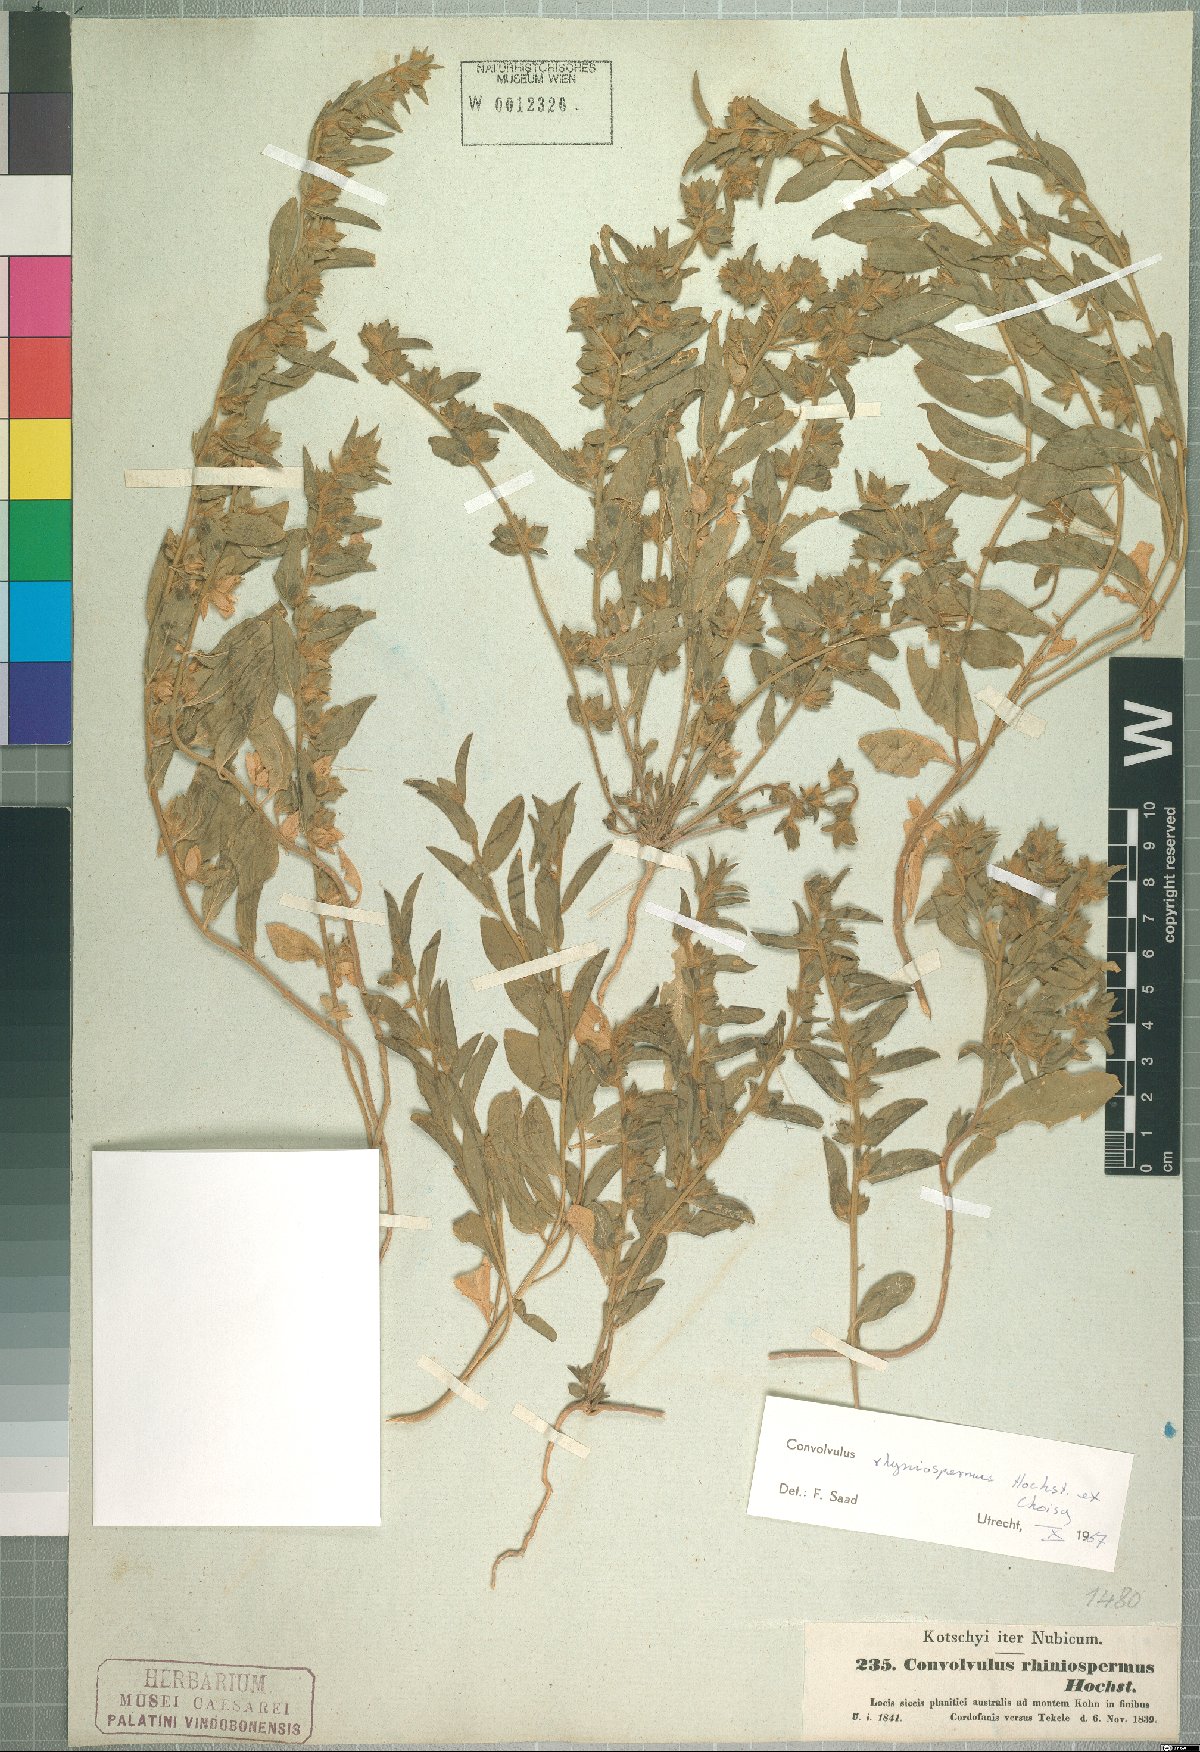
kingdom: Plantae
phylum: Tracheophyta
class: Magnoliopsida
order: Solanales
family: Convolvulaceae
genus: Convolvulus
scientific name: Convolvulus rhyniospermus
